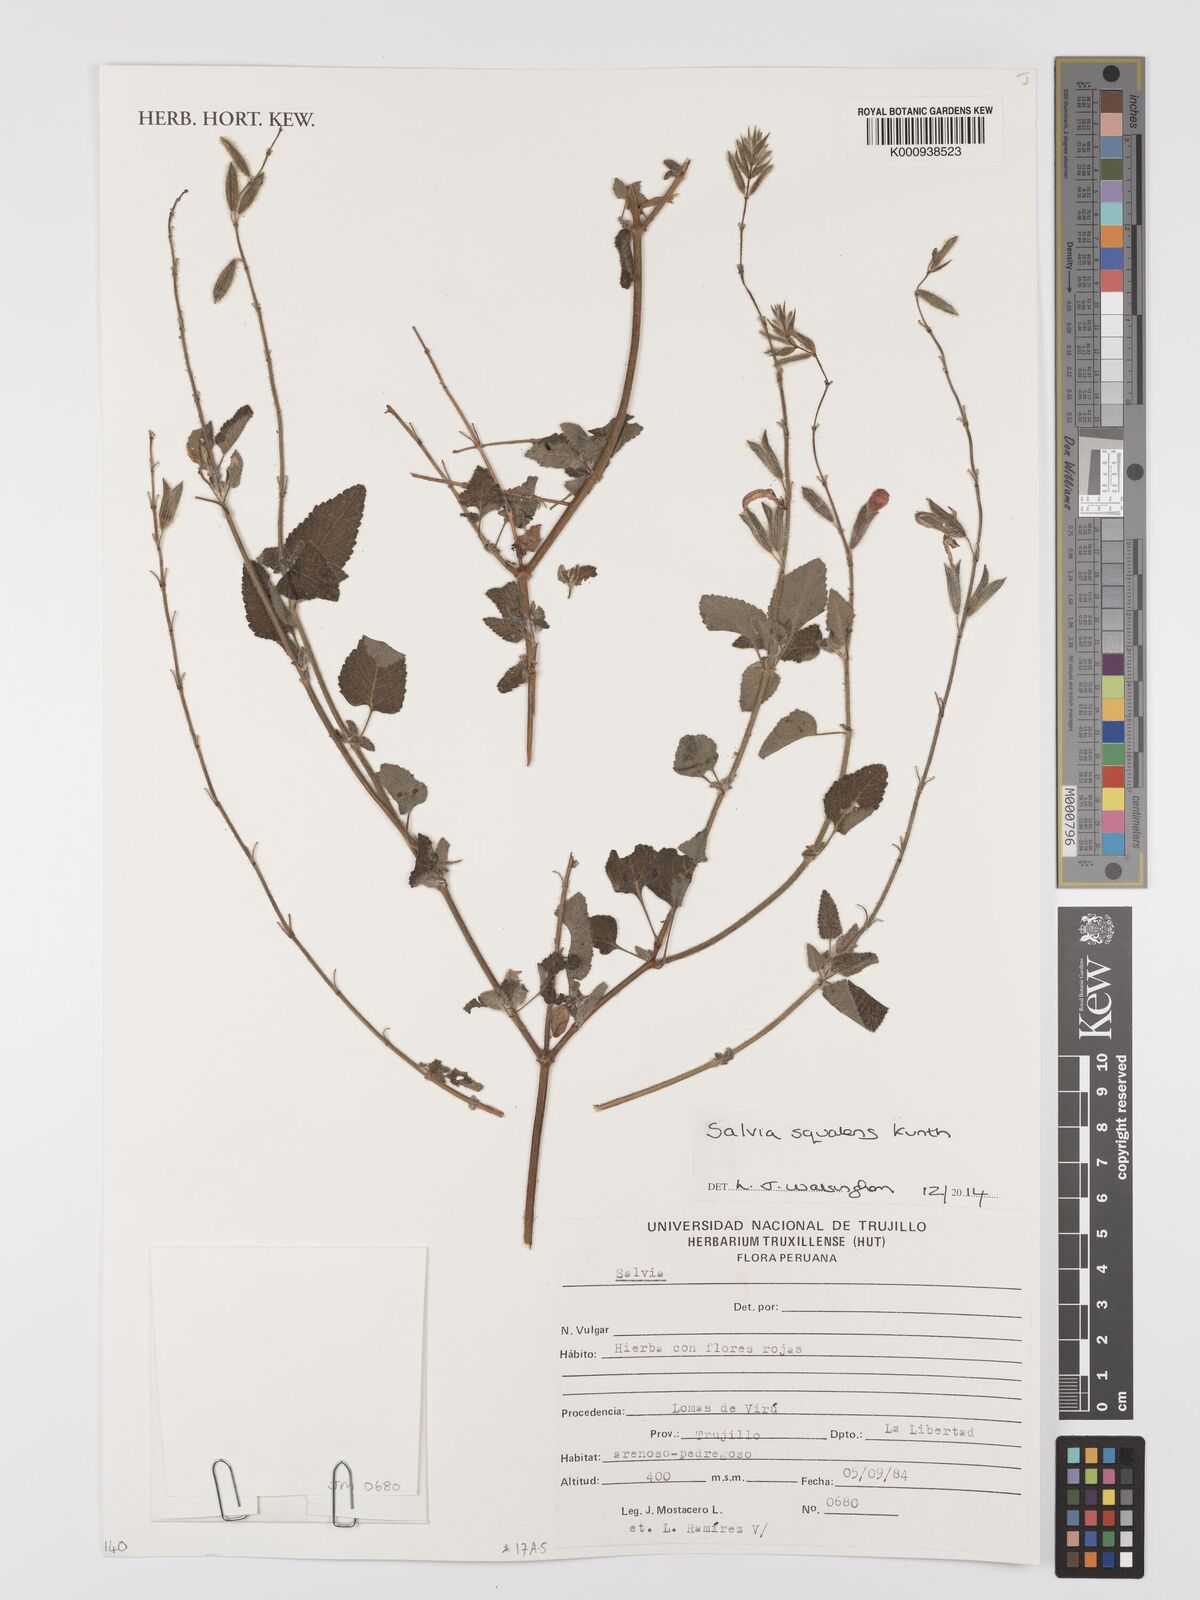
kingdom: Plantae
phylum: Tracheophyta
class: Magnoliopsida
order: Lamiales
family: Lamiaceae
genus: Salvia
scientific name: Salvia squalens
